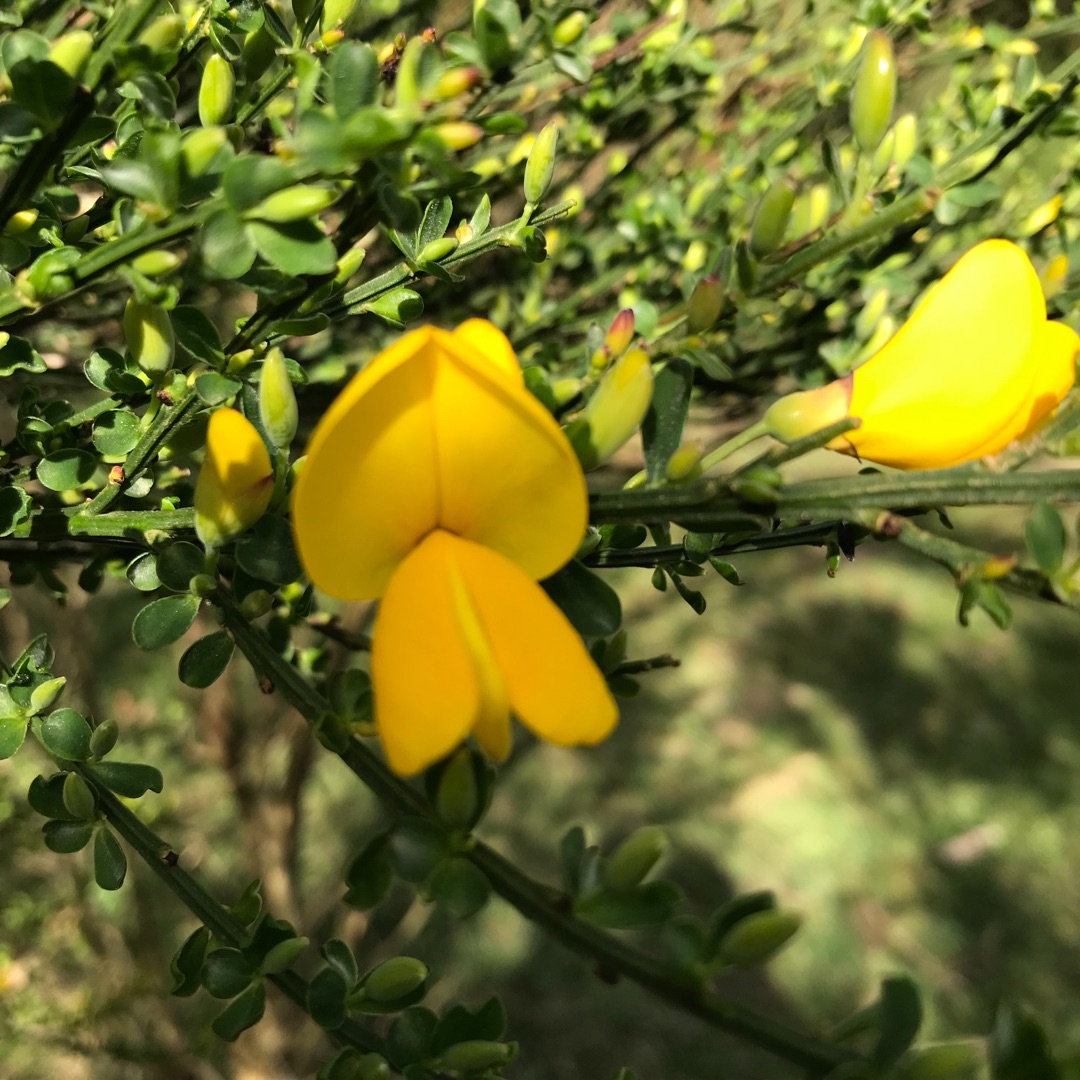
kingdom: Plantae
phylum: Tracheophyta
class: Magnoliopsida
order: Fabales
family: Fabaceae
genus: Cytisus
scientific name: Cytisus scoparius
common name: Almindelig gyvel
